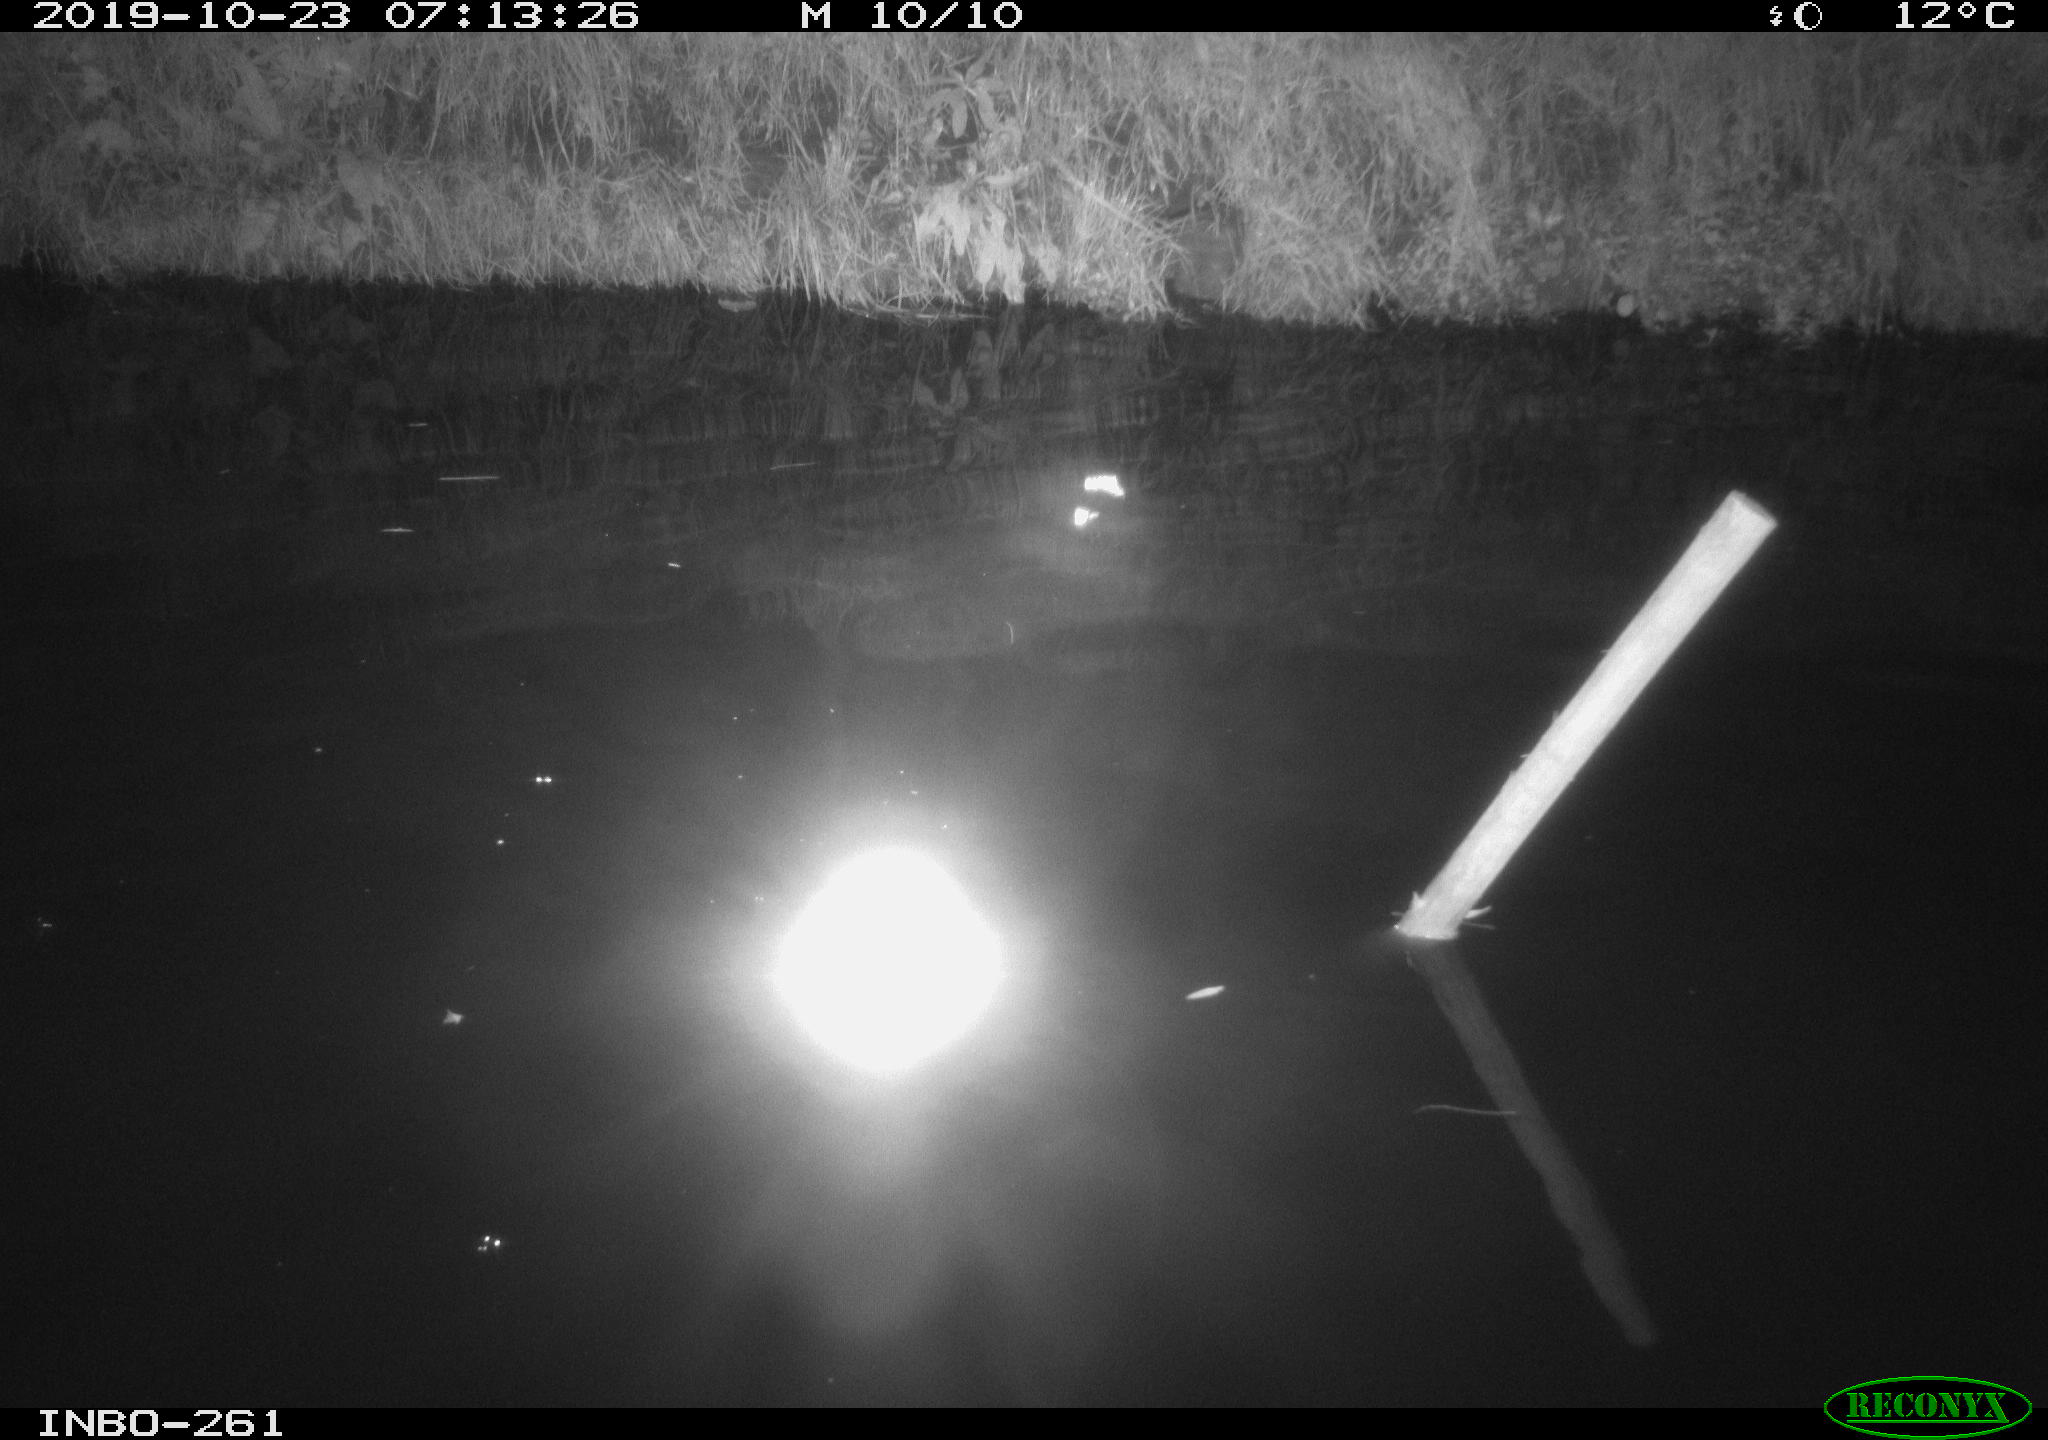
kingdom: Animalia
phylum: Chordata
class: Aves
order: Anseriformes
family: Anatidae
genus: Anas
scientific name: Anas platyrhynchos
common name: Mallard
